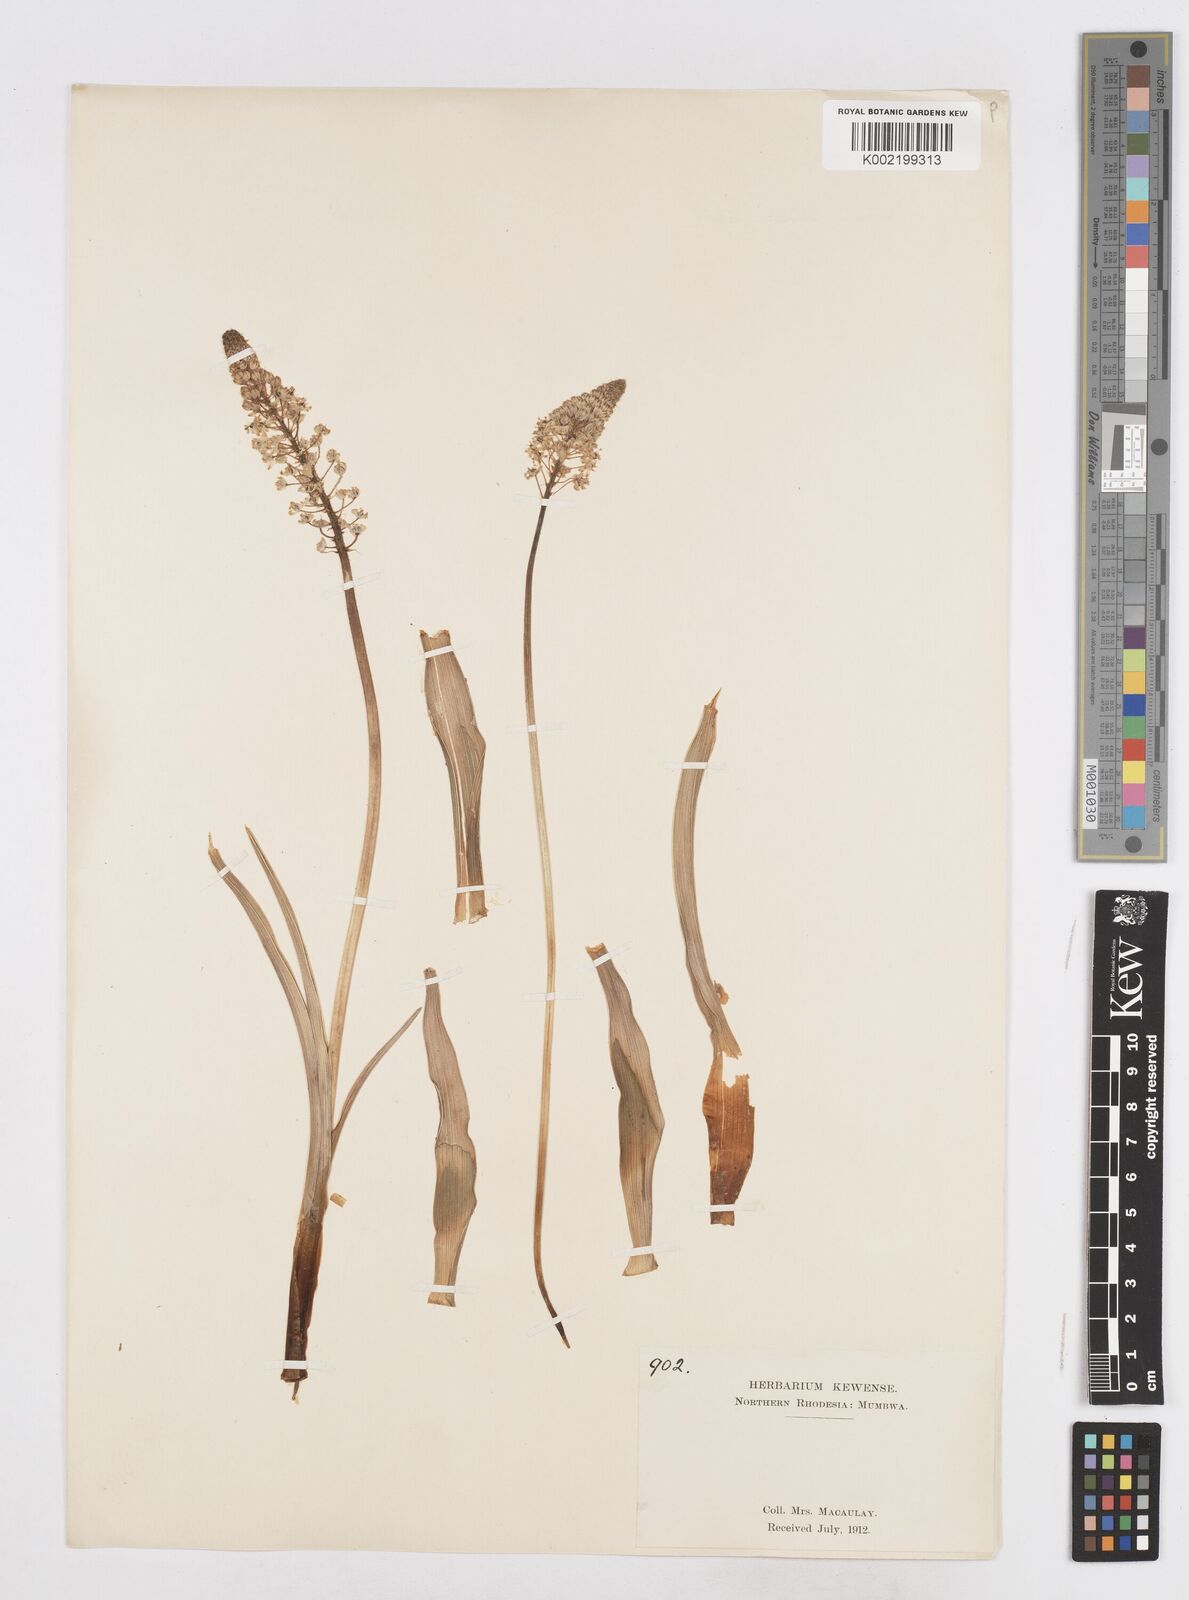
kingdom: Plantae
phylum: Tracheophyta
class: Liliopsida
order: Asparagales
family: Asparagaceae
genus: Schizocarphus
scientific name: Schizocarphus nervosus
